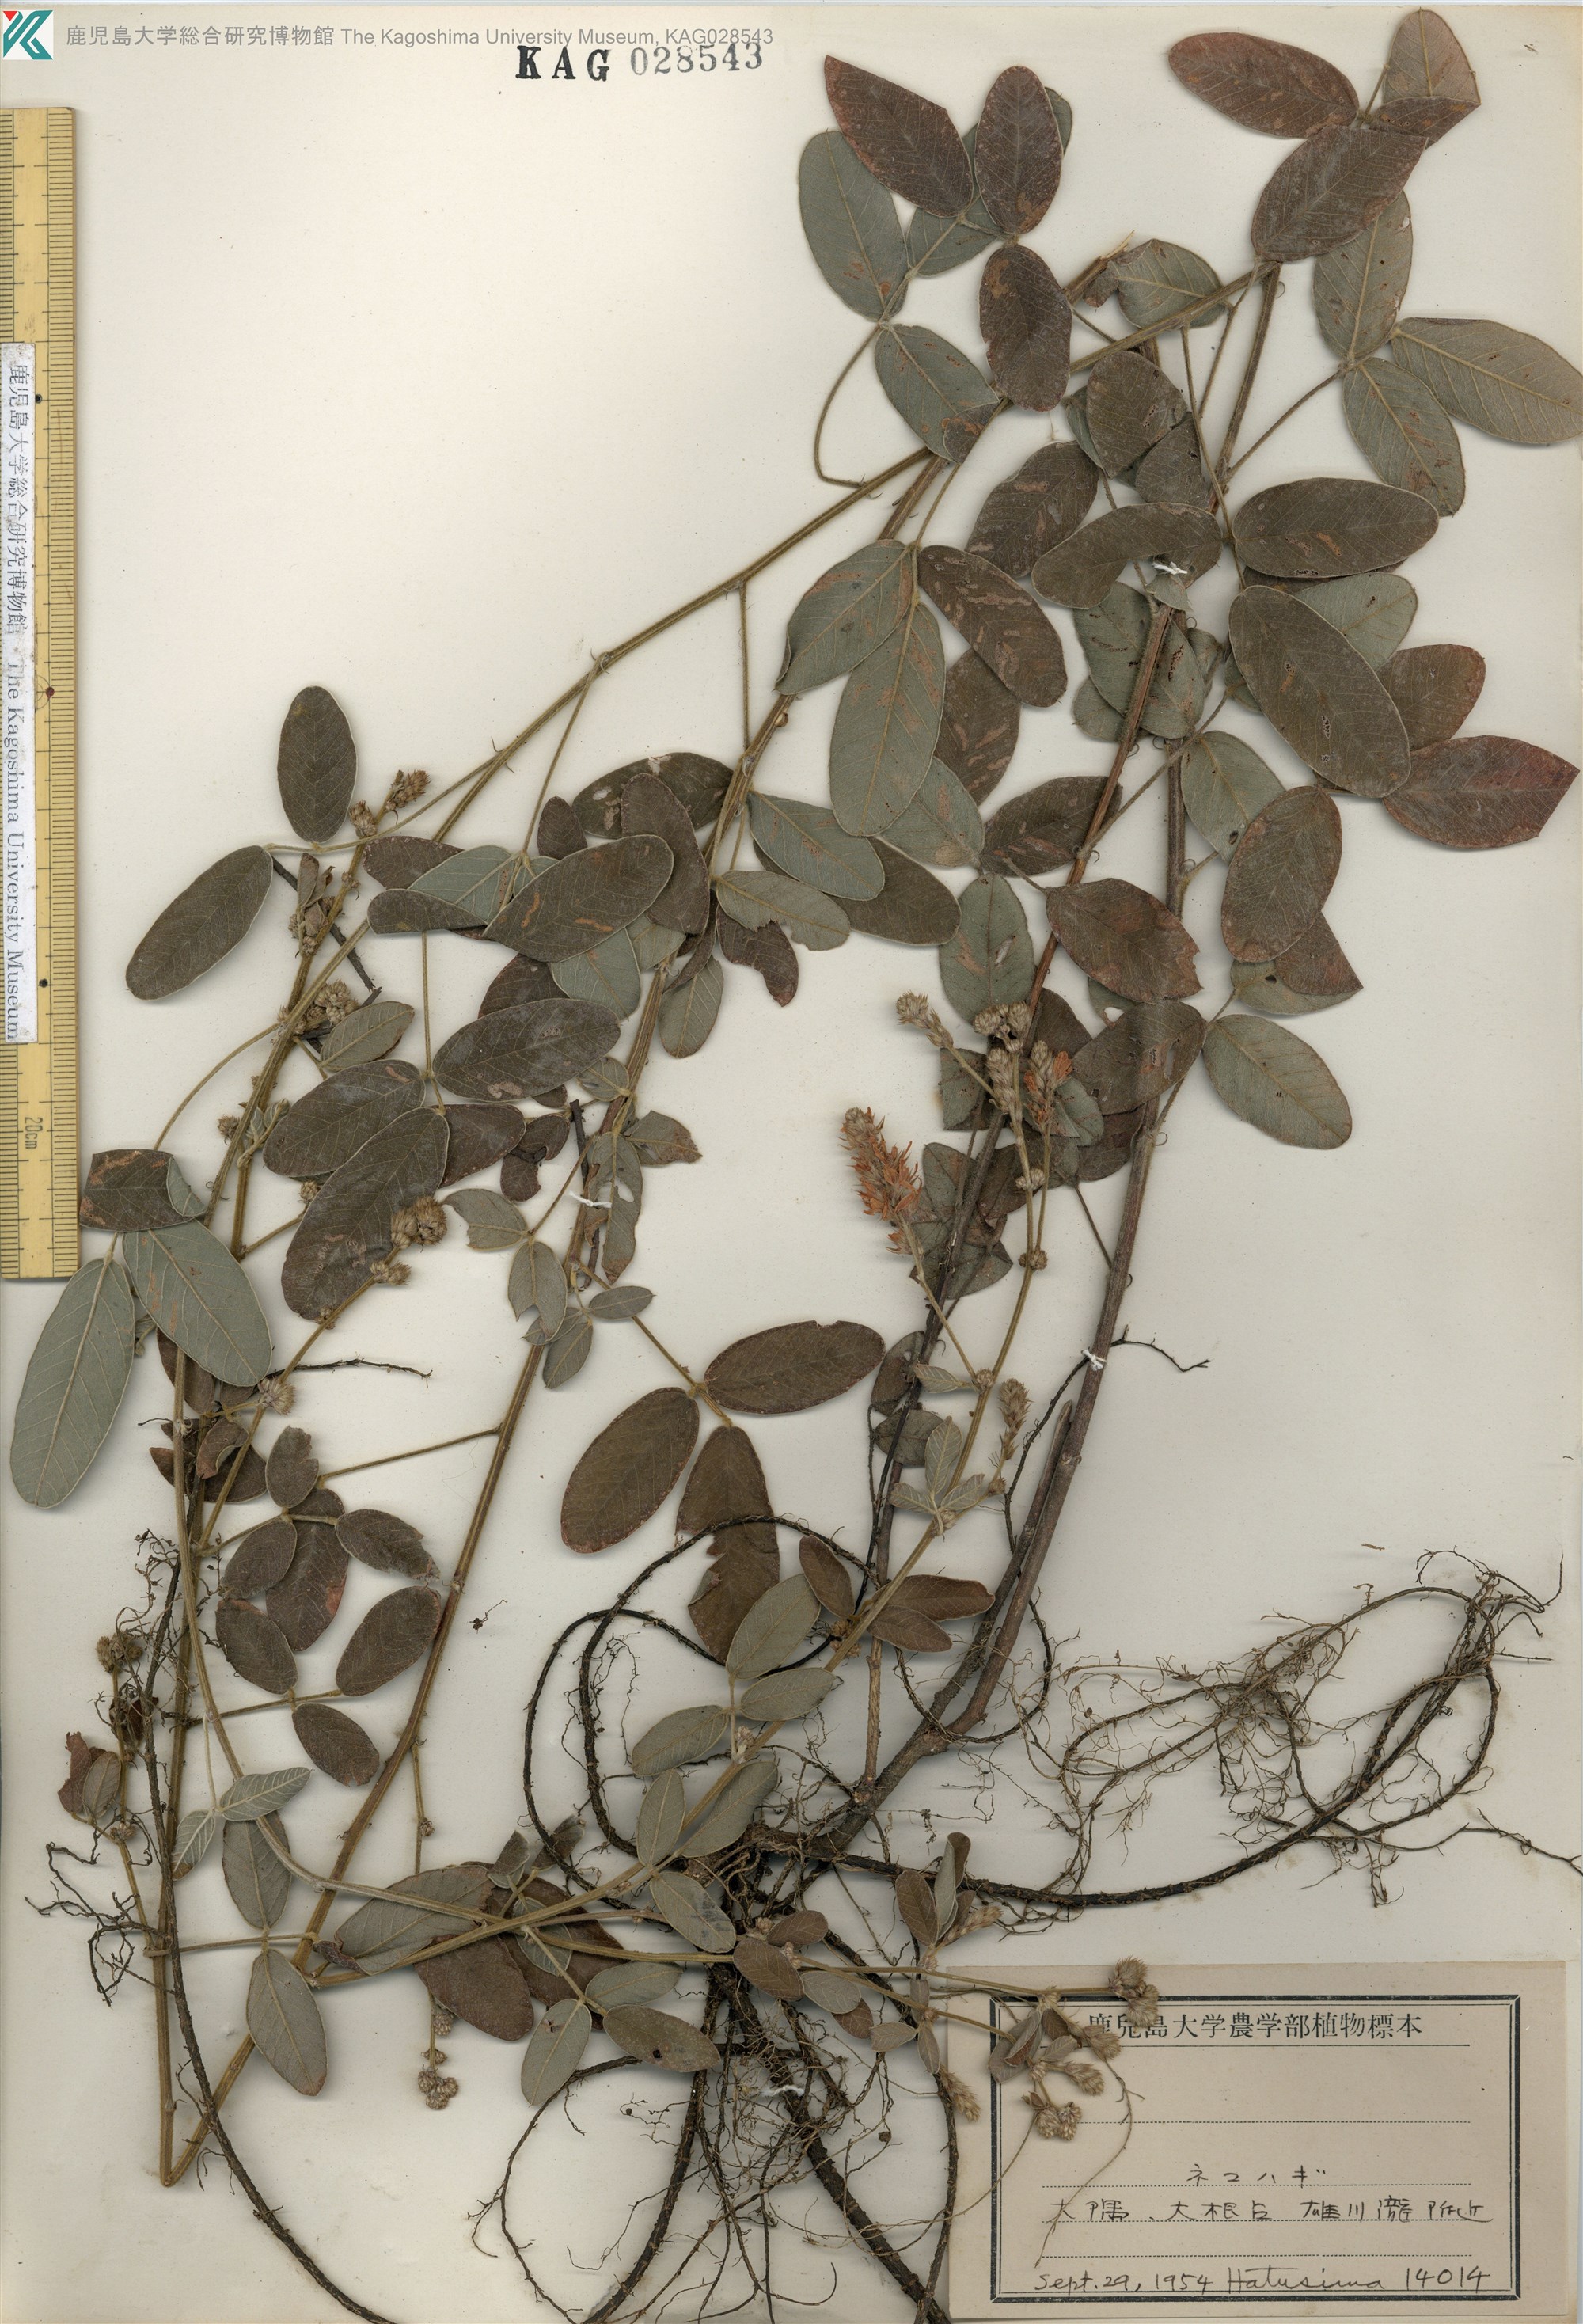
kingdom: Plantae
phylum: Tracheophyta
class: Magnoliopsida
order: Fabales
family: Fabaceae
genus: Lespedeza
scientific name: Lespedeza tomentosa
